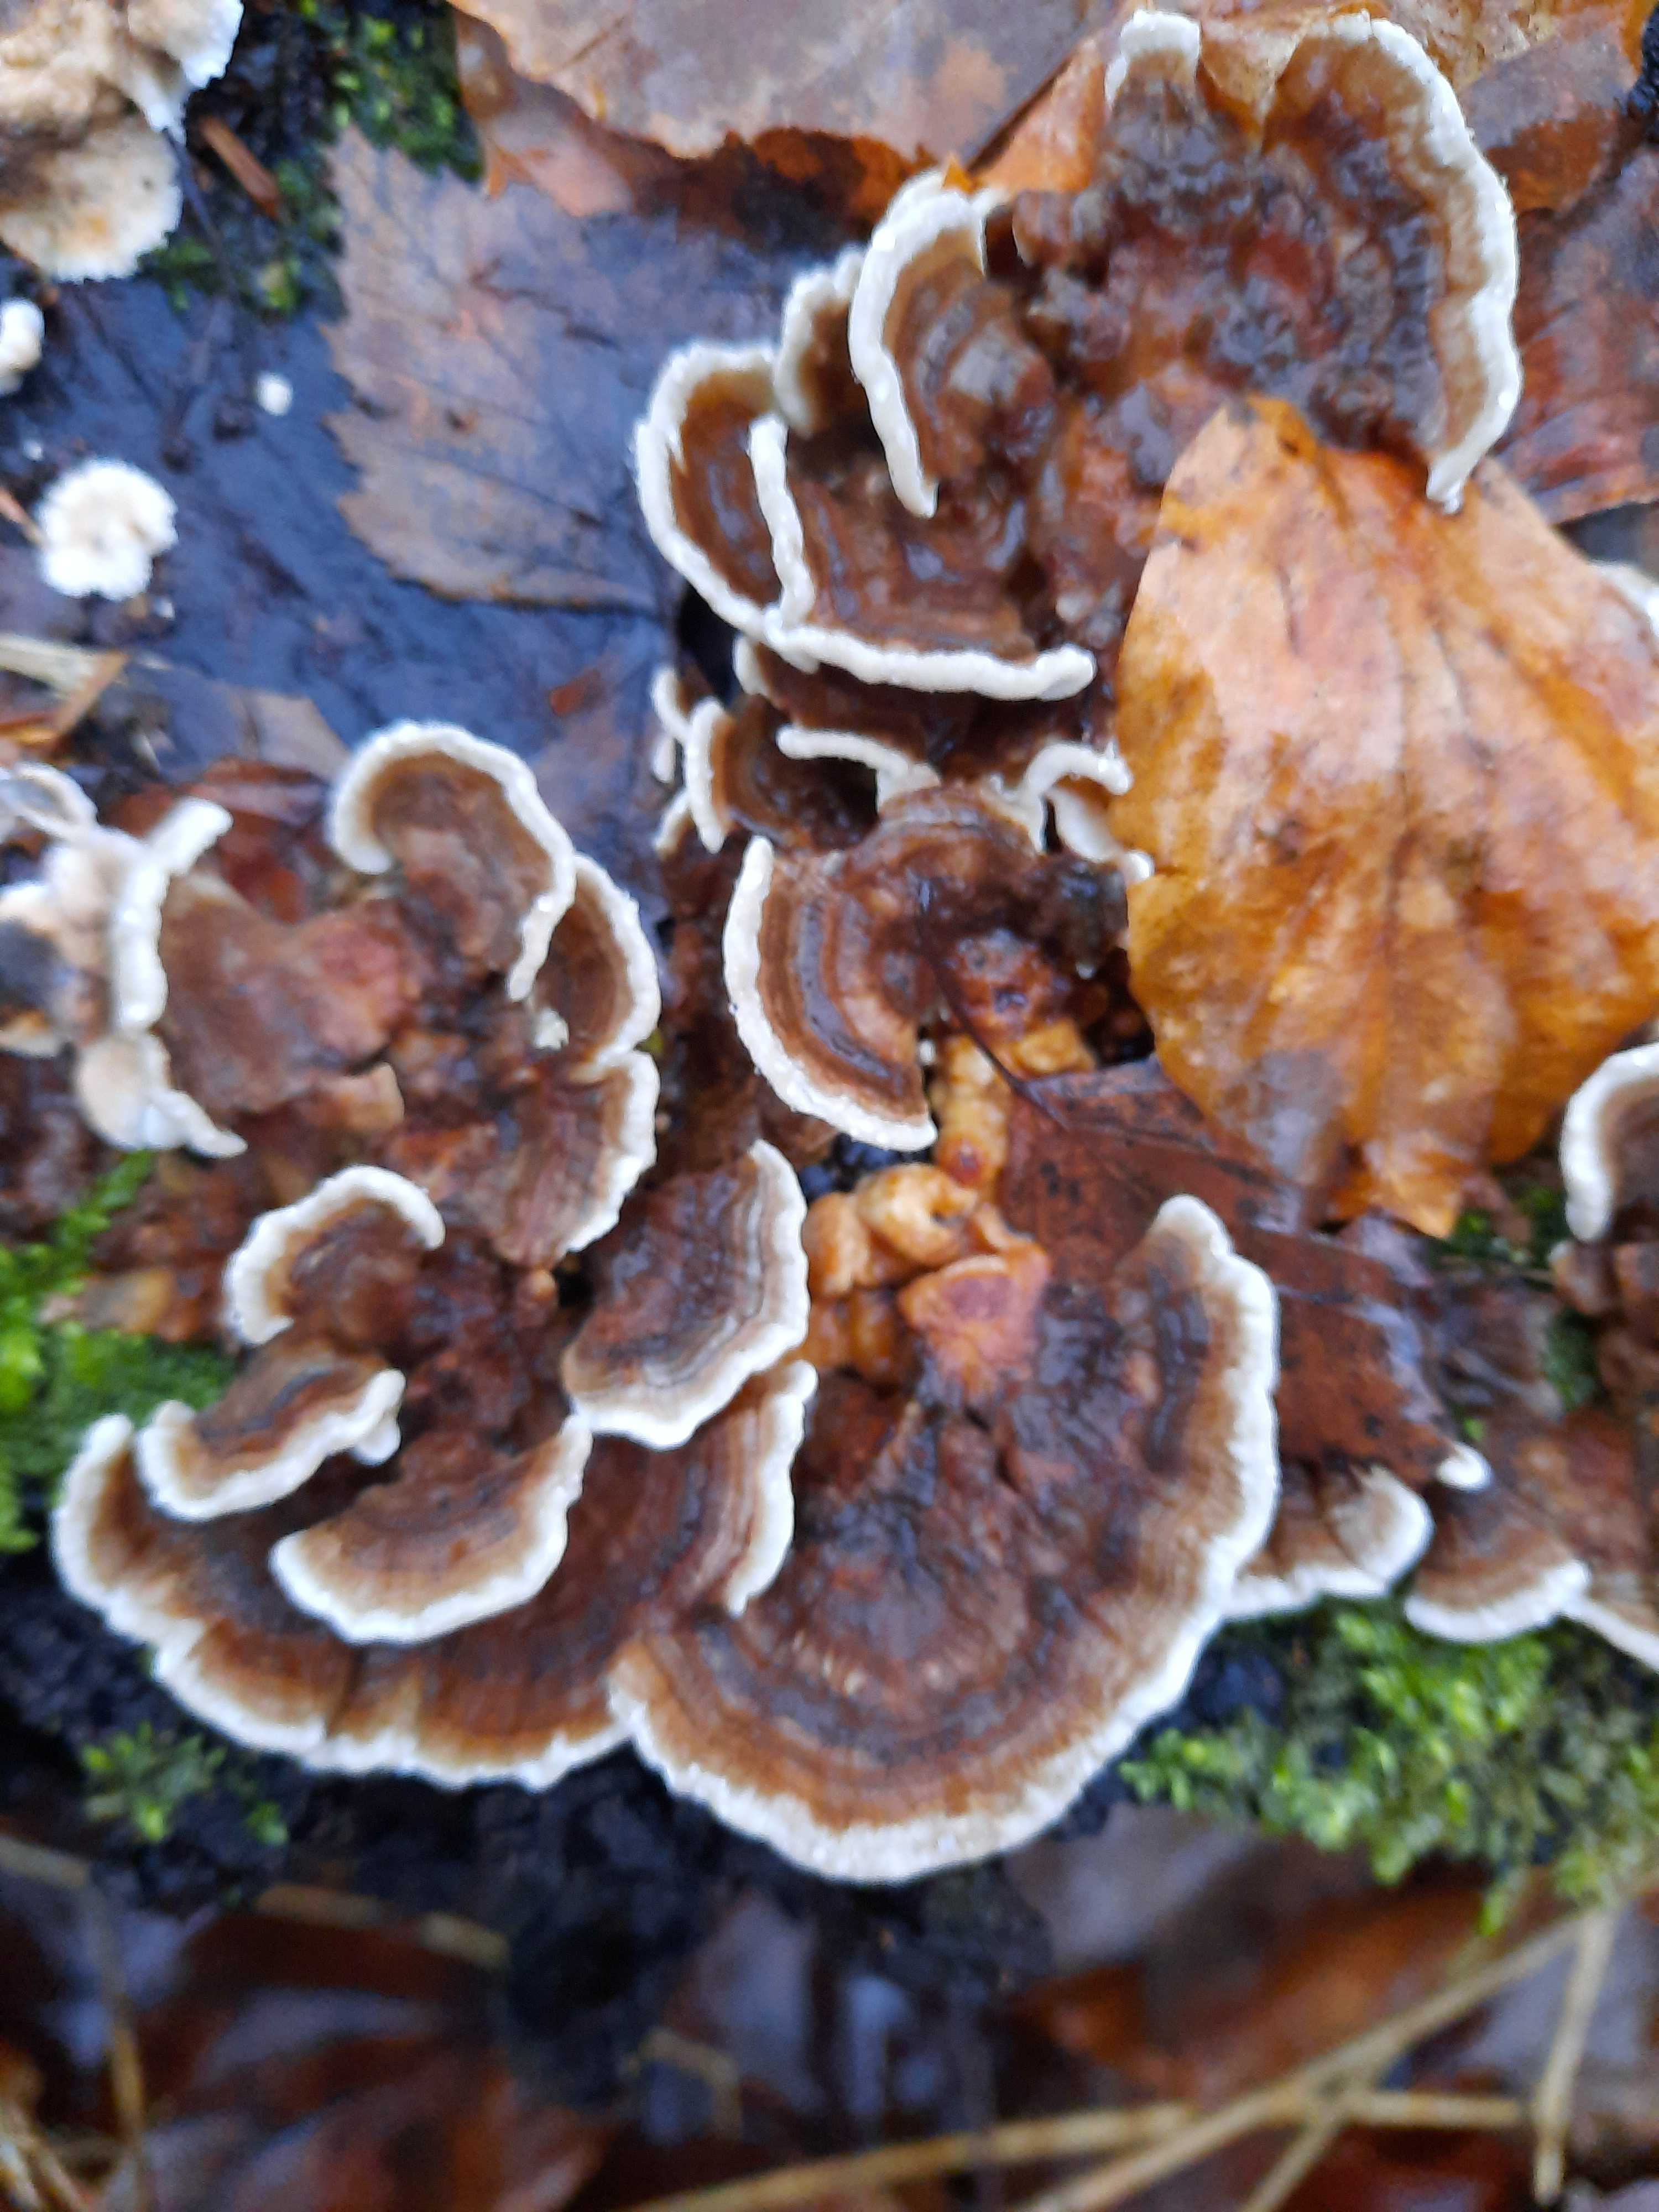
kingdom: Fungi
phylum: Basidiomycota
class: Agaricomycetes
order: Polyporales
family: Polyporaceae
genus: Trametes
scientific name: Trametes versicolor
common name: broget læderporesvamp
